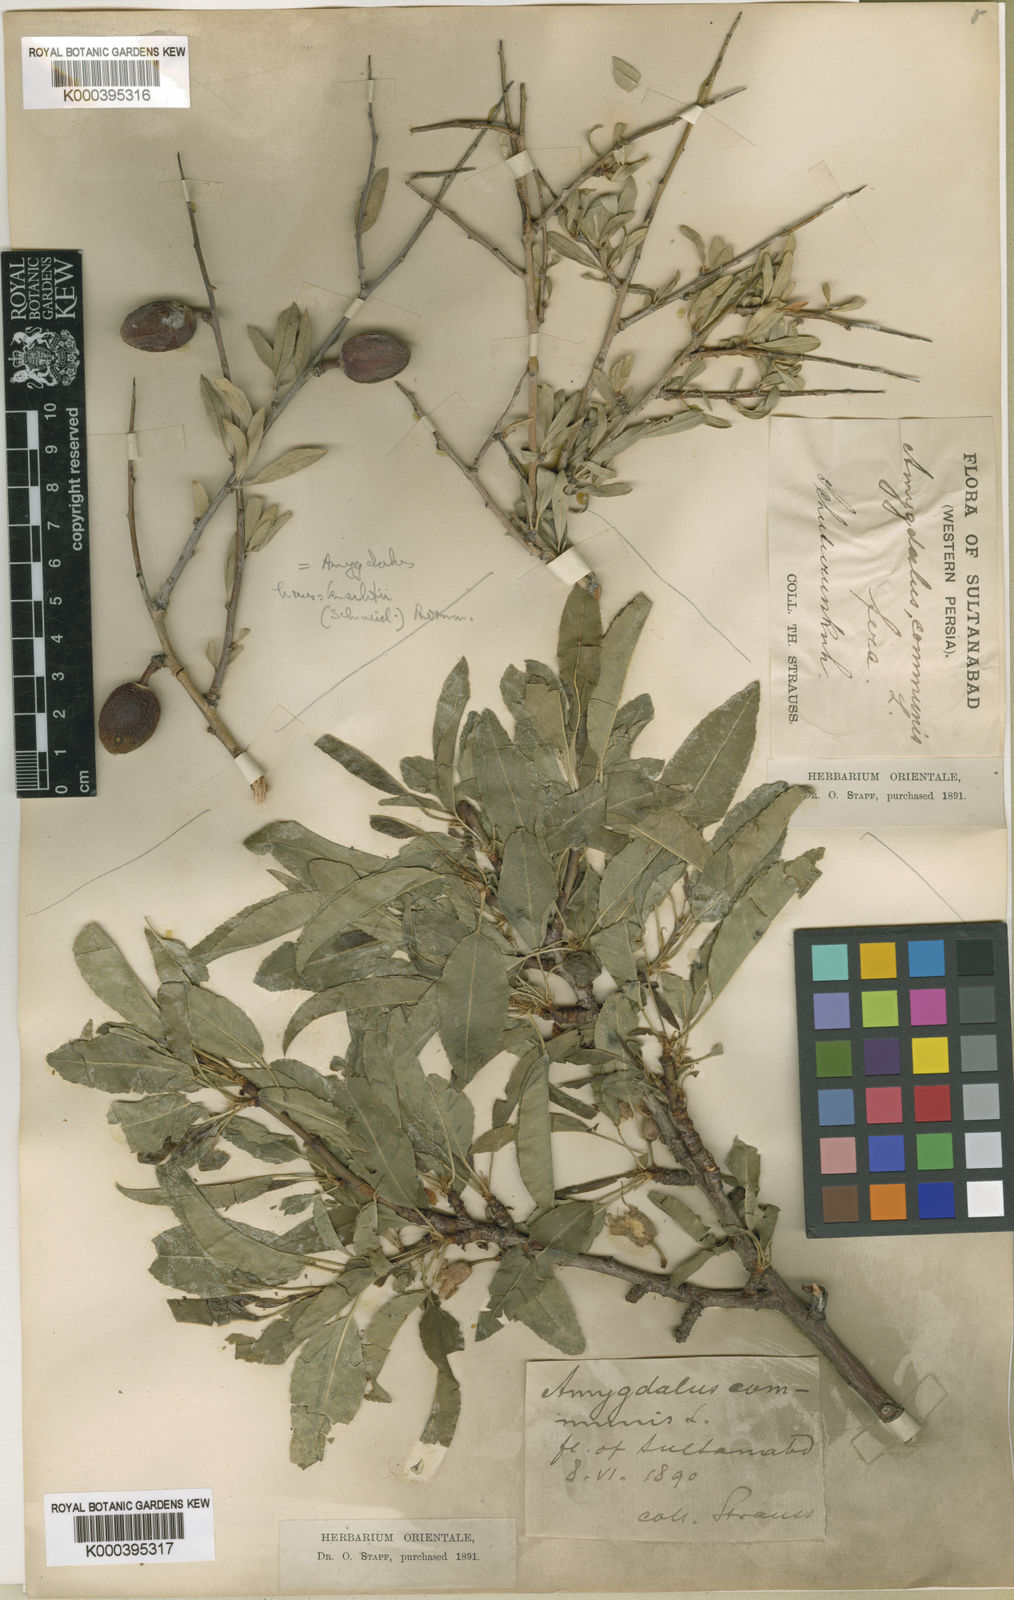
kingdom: Plantae
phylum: Tracheophyta
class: Magnoliopsida
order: Rosales
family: Rosaceae
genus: Prunus
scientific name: Prunus haussknechtii
